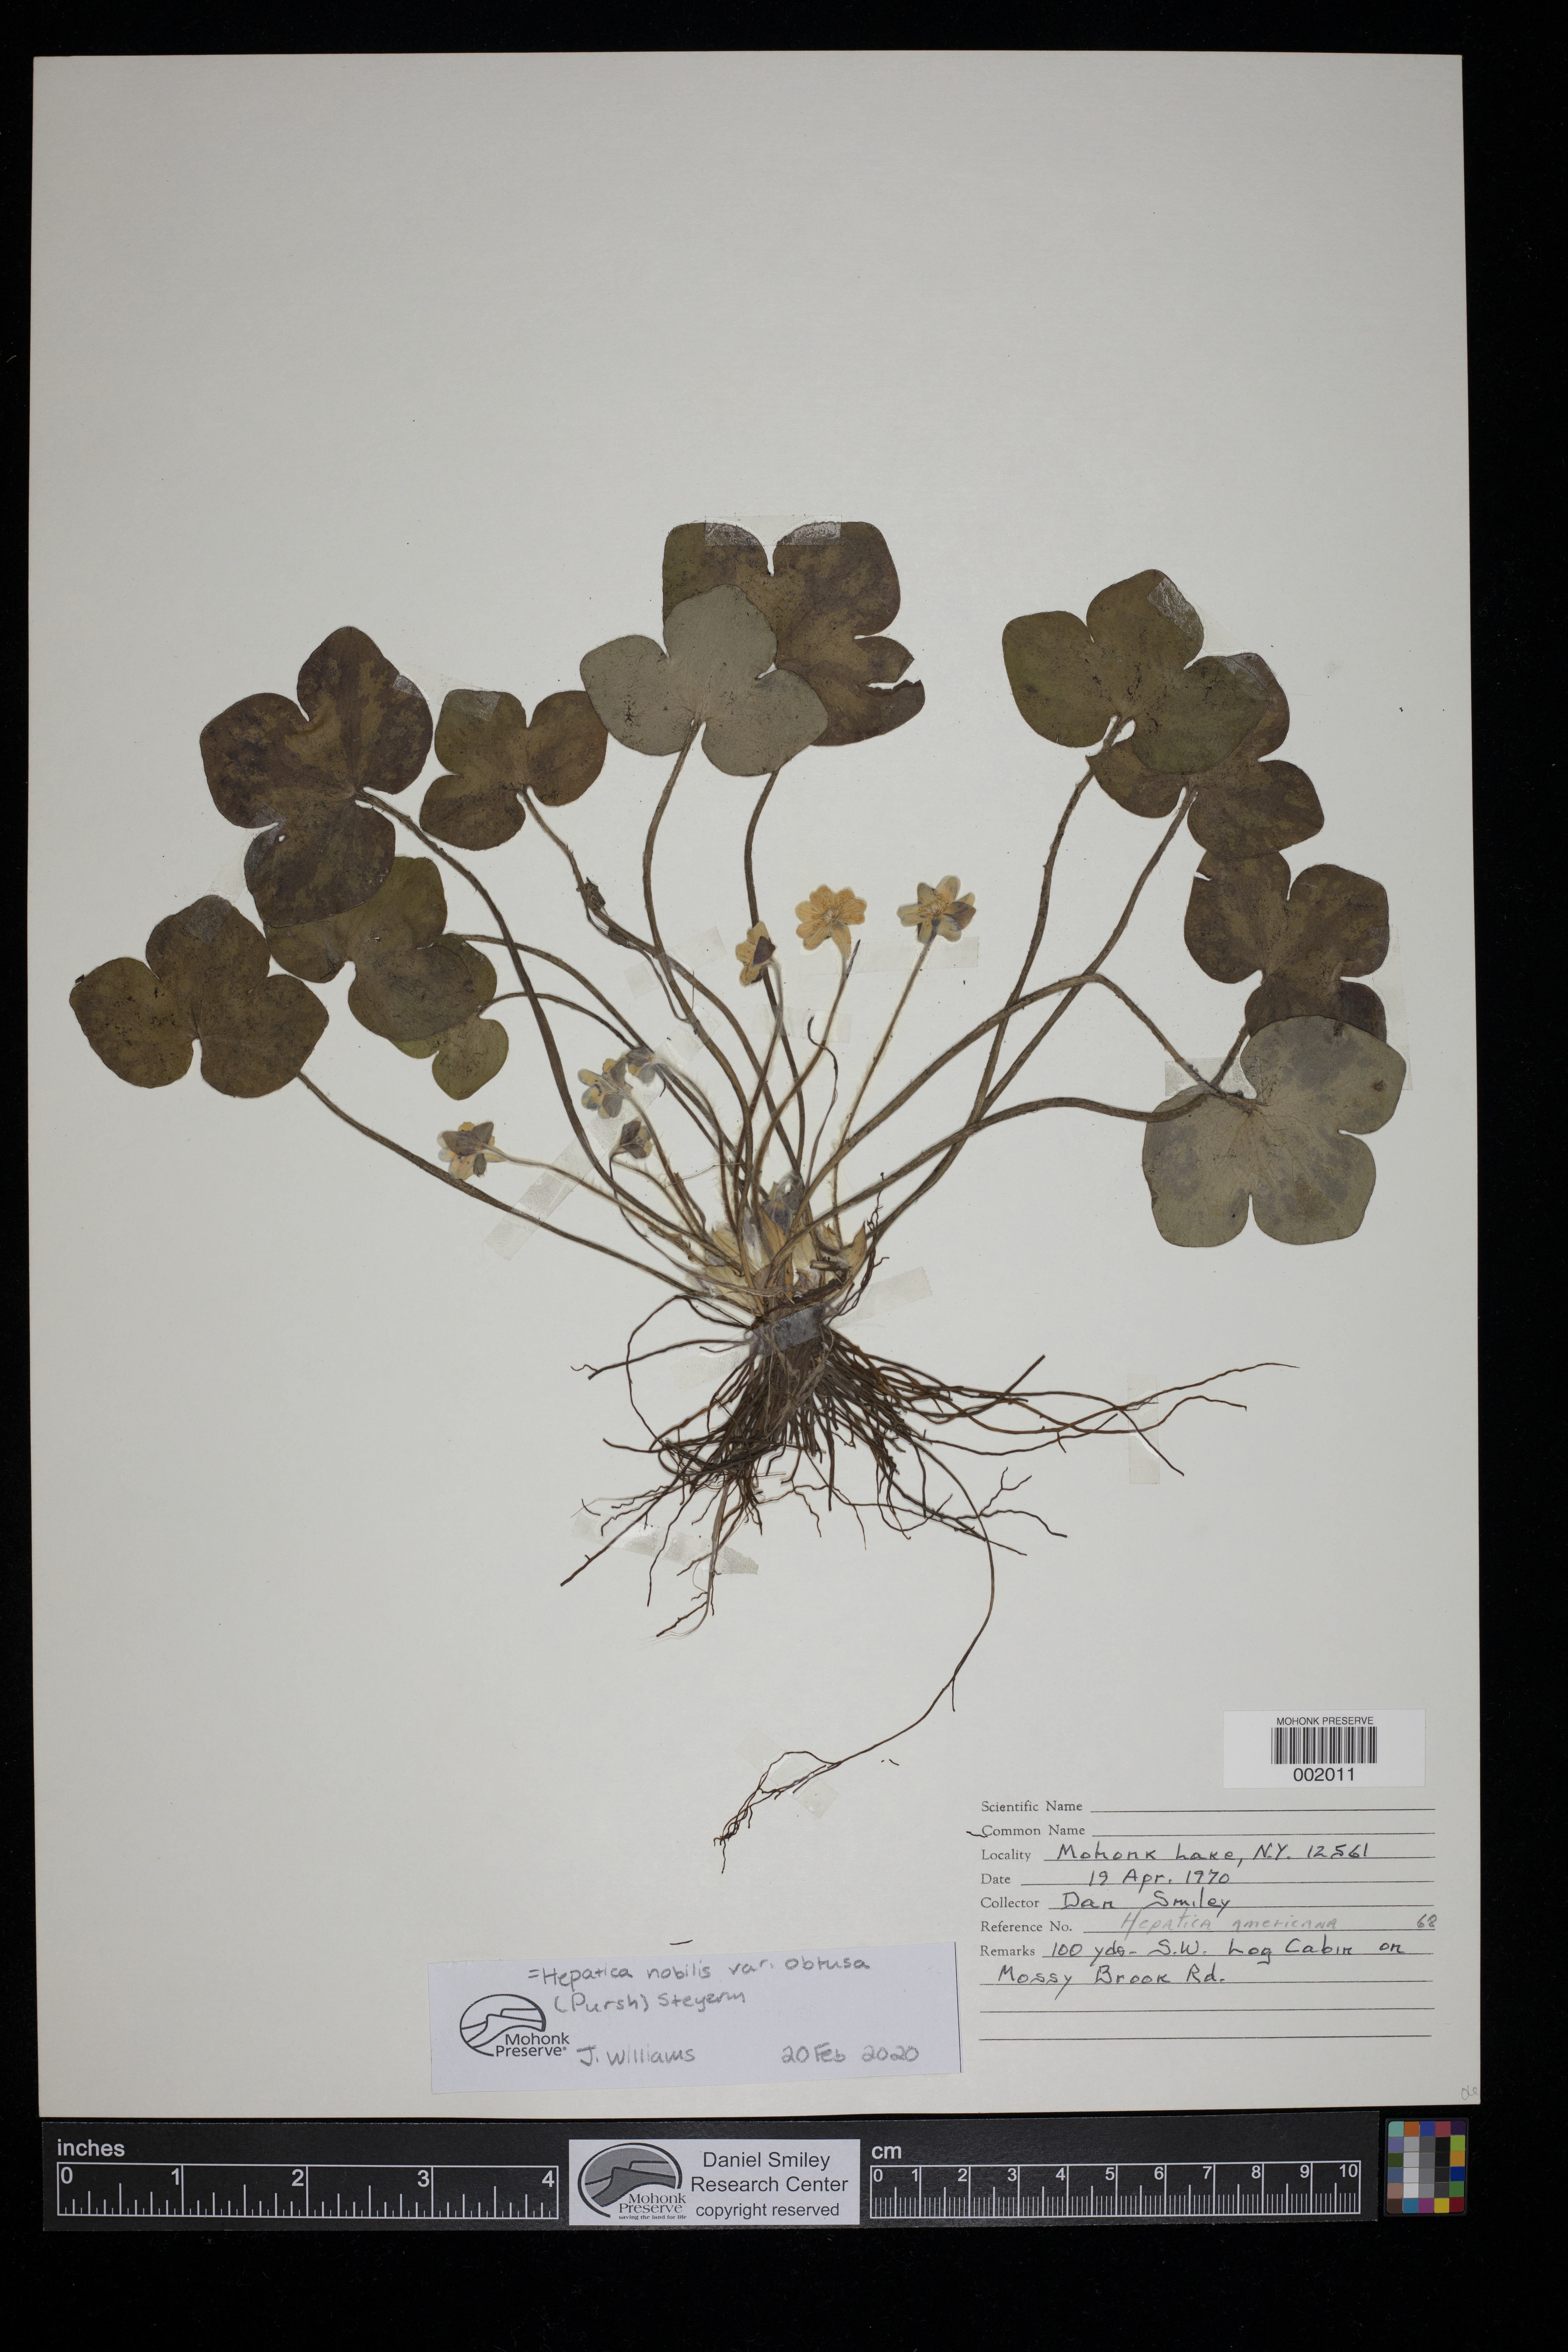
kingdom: Plantae
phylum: Tracheophyta
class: Magnoliopsida
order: Ranunculales
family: Ranunculaceae
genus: Hepatica
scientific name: Hepatica nobilis
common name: Liverleaf
